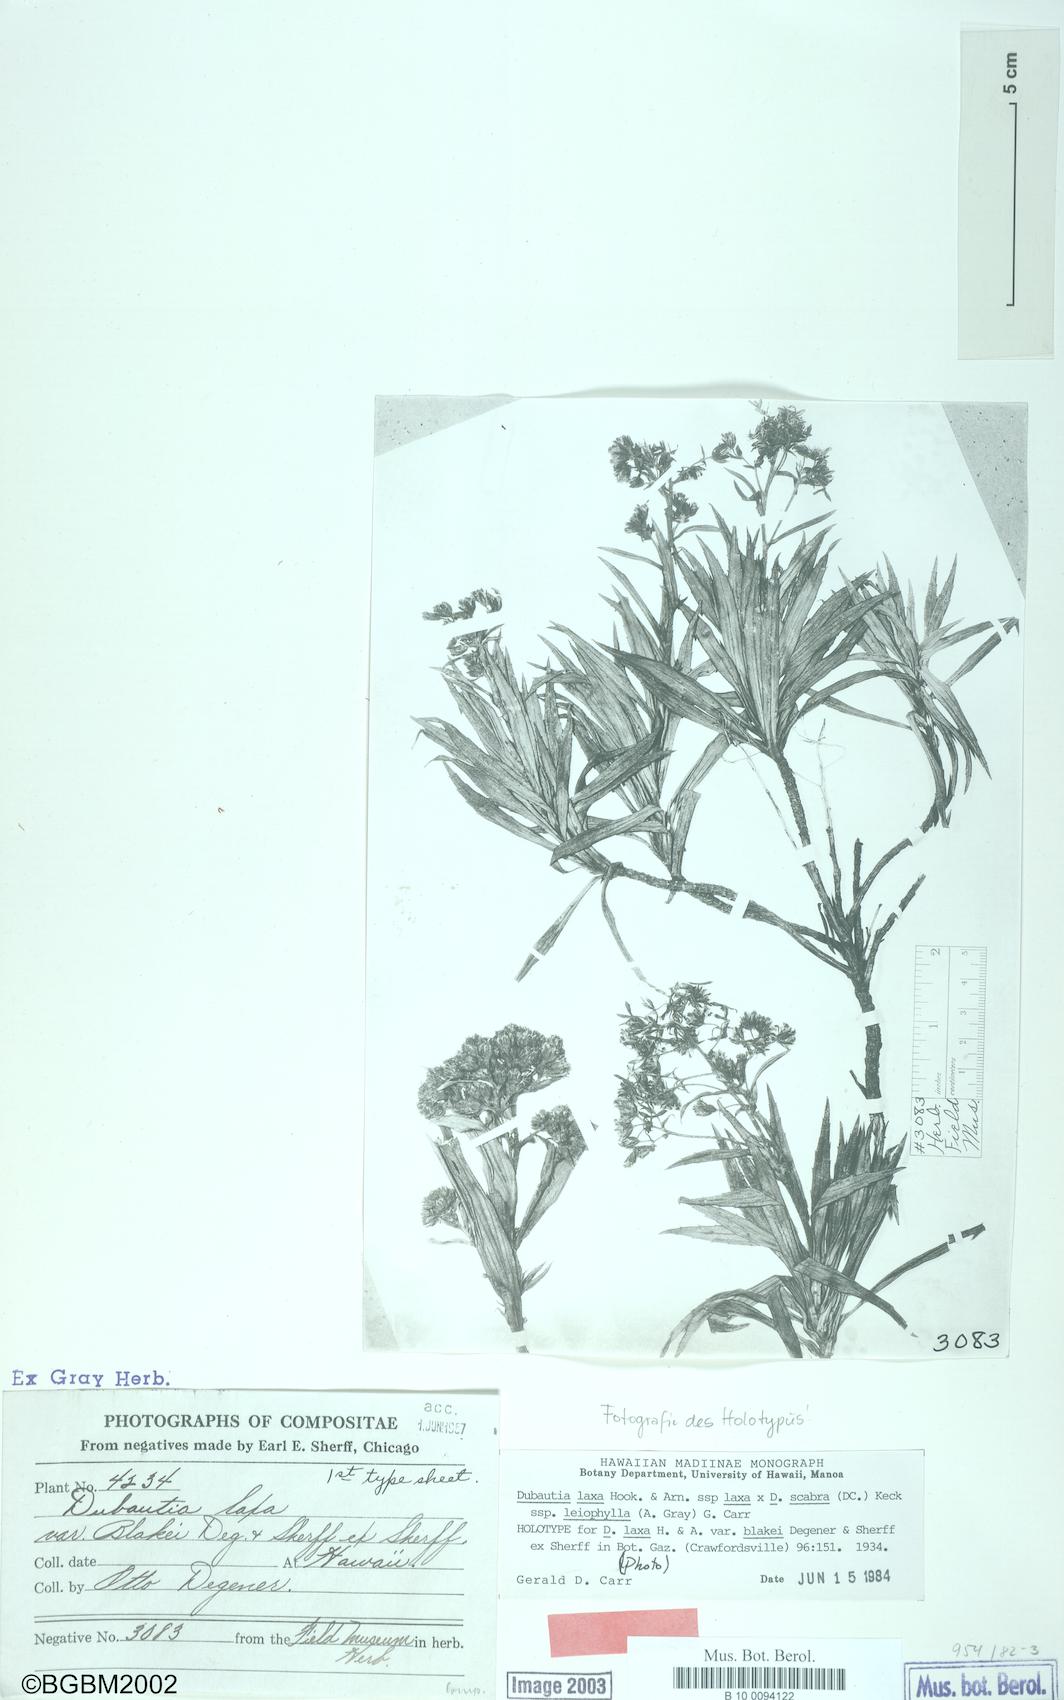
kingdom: Plantae
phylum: Tracheophyta
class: Magnoliopsida
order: Asterales
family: Asteraceae
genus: Dubautia
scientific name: Dubautia laxa
